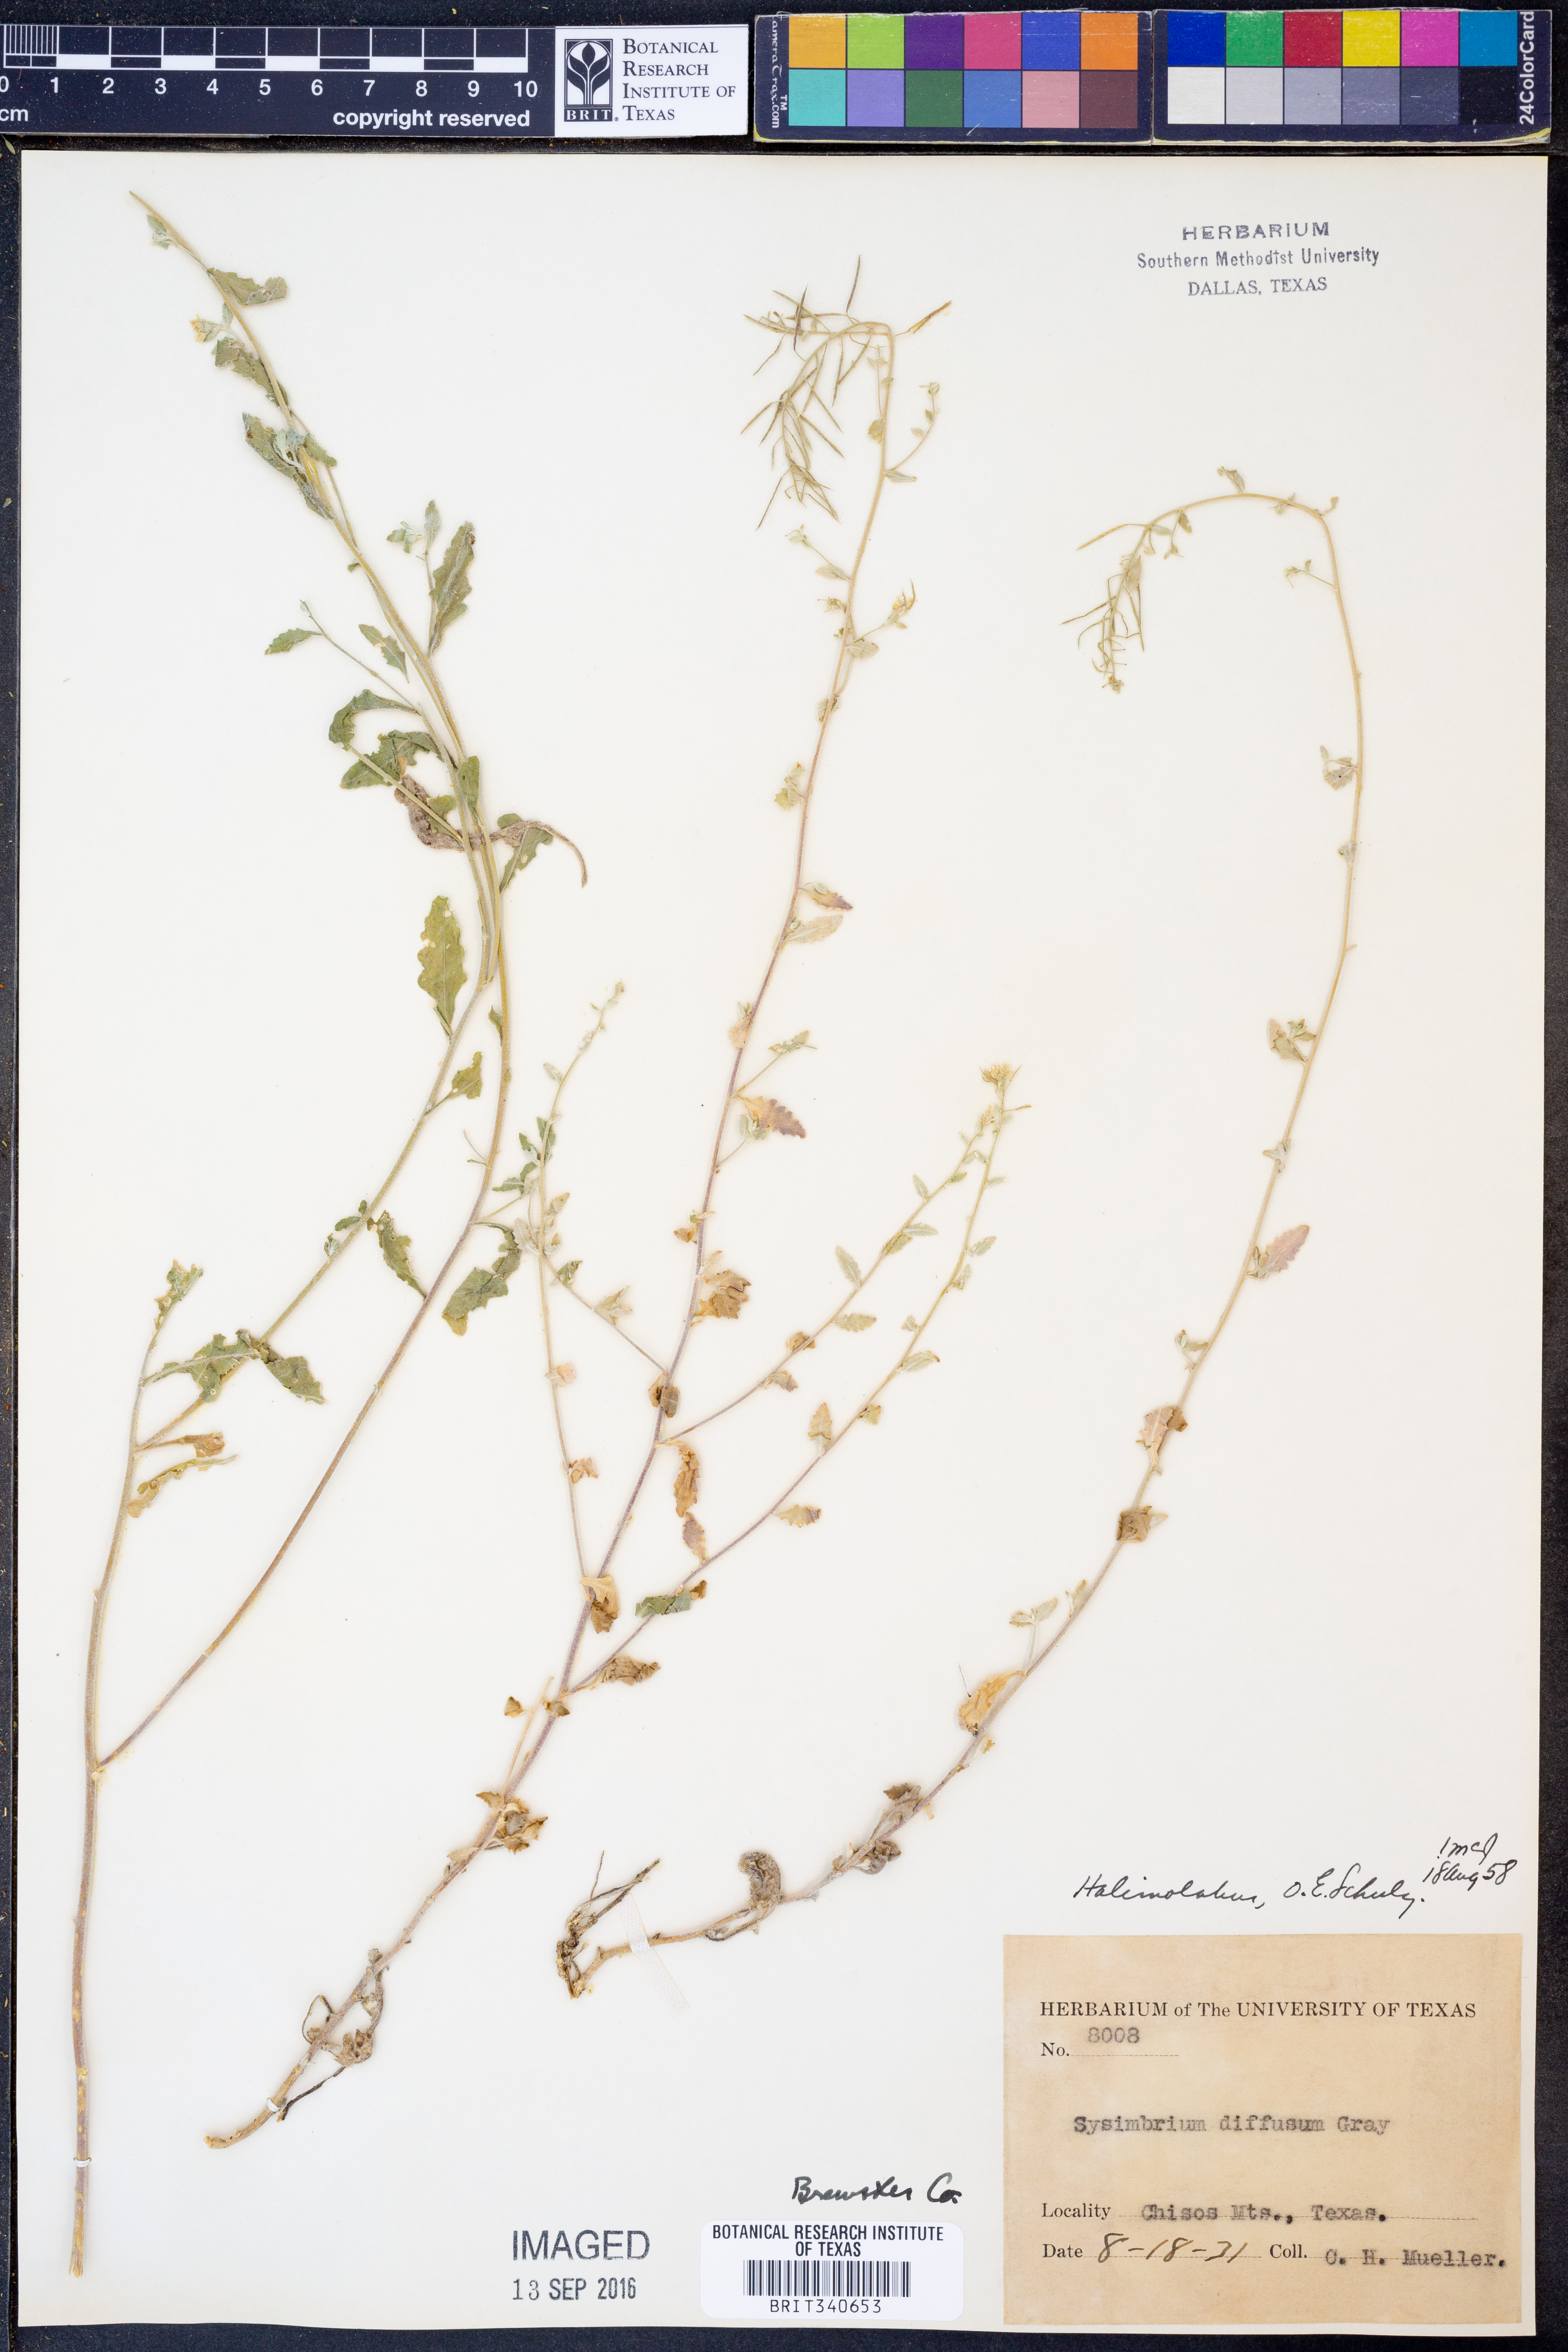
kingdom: Plantae
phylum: Tracheophyta
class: Magnoliopsida
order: Brassicales
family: Brassicaceae
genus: Halimolobos
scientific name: Halimolobos diffusus
